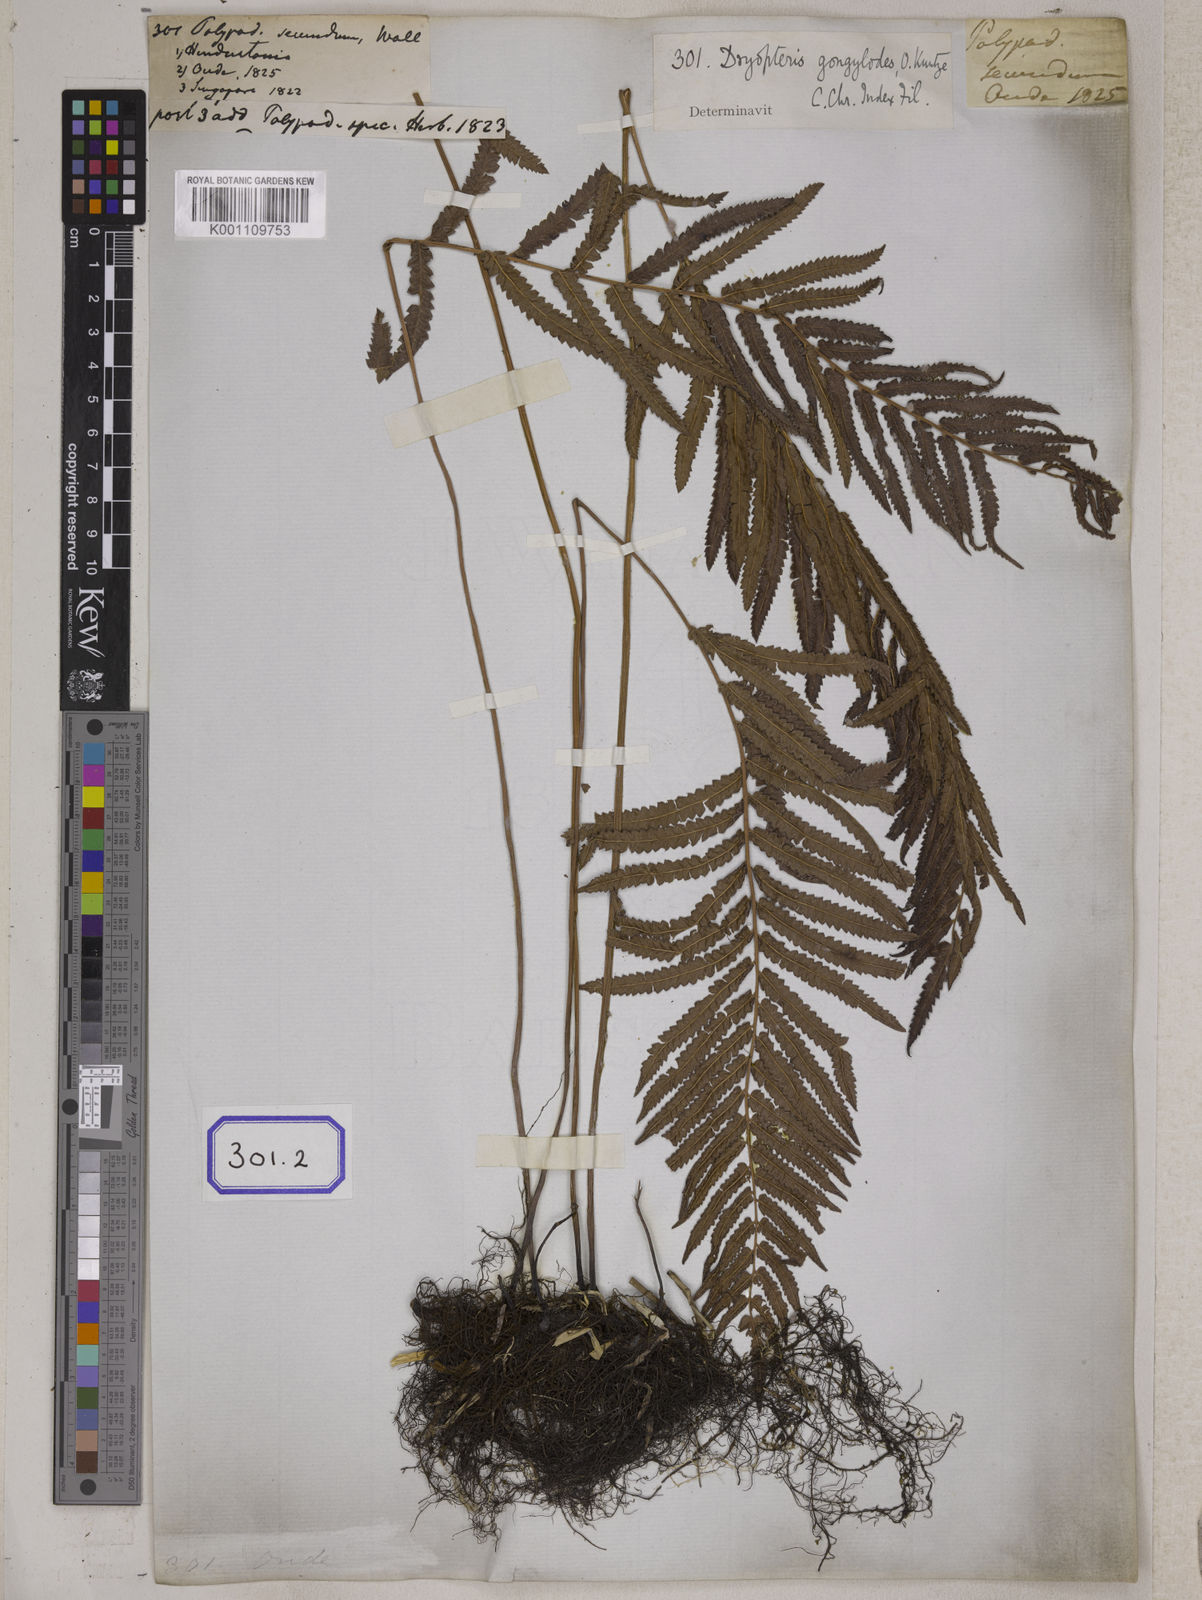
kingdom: Plantae
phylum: Tracheophyta
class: Polypodiopsida
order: Polypodiales
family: Thelypteridaceae
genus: Cyclosorus
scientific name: Cyclosorus interruptus
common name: Neke fern
